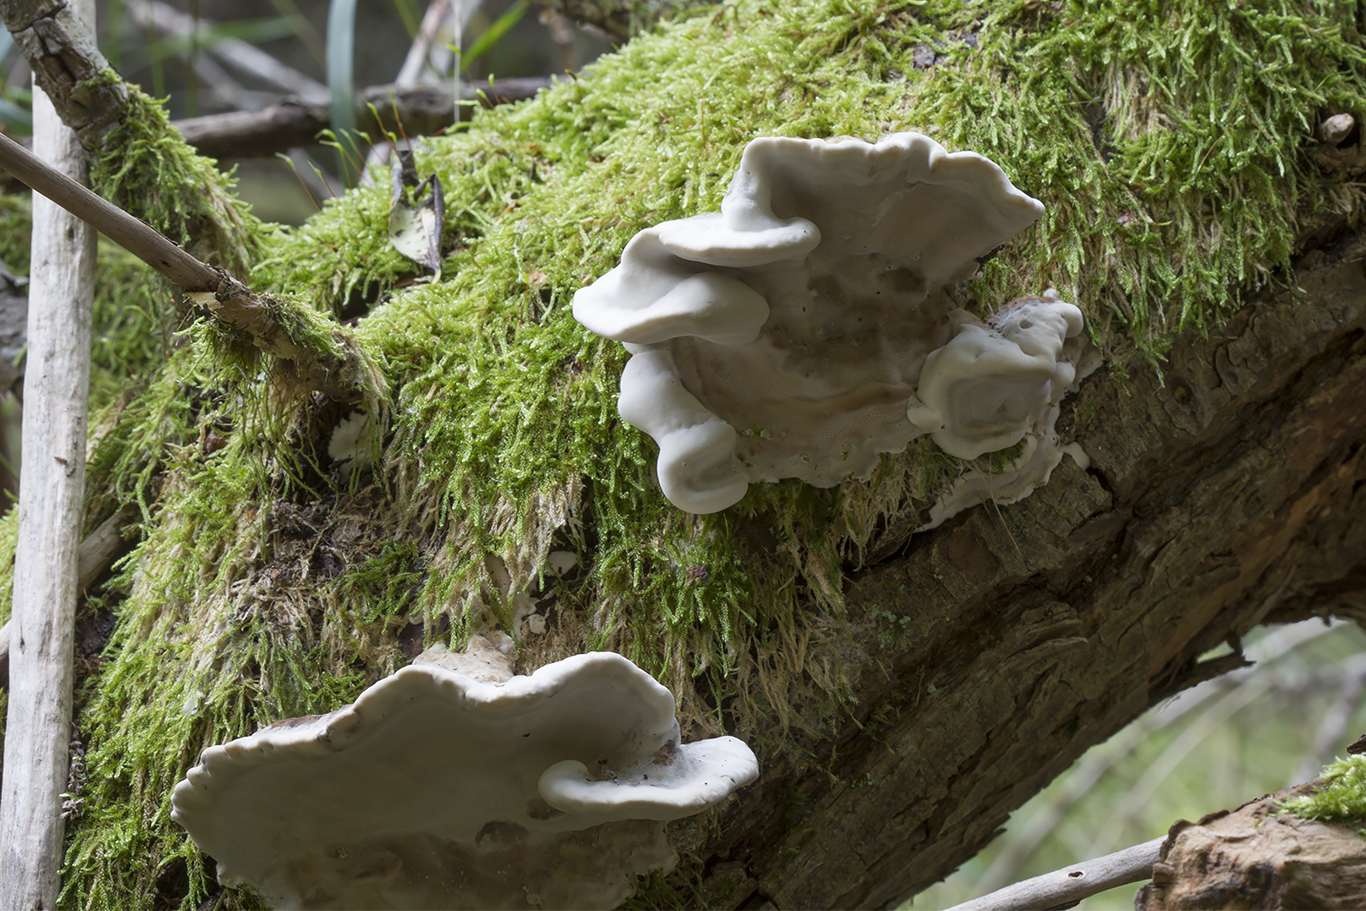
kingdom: Fungi
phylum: Basidiomycota
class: Agaricomycetes
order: Polyporales
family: Phanerochaetaceae
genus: Bjerkandera
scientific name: Bjerkandera fumosa
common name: grågul sodporesvamp
